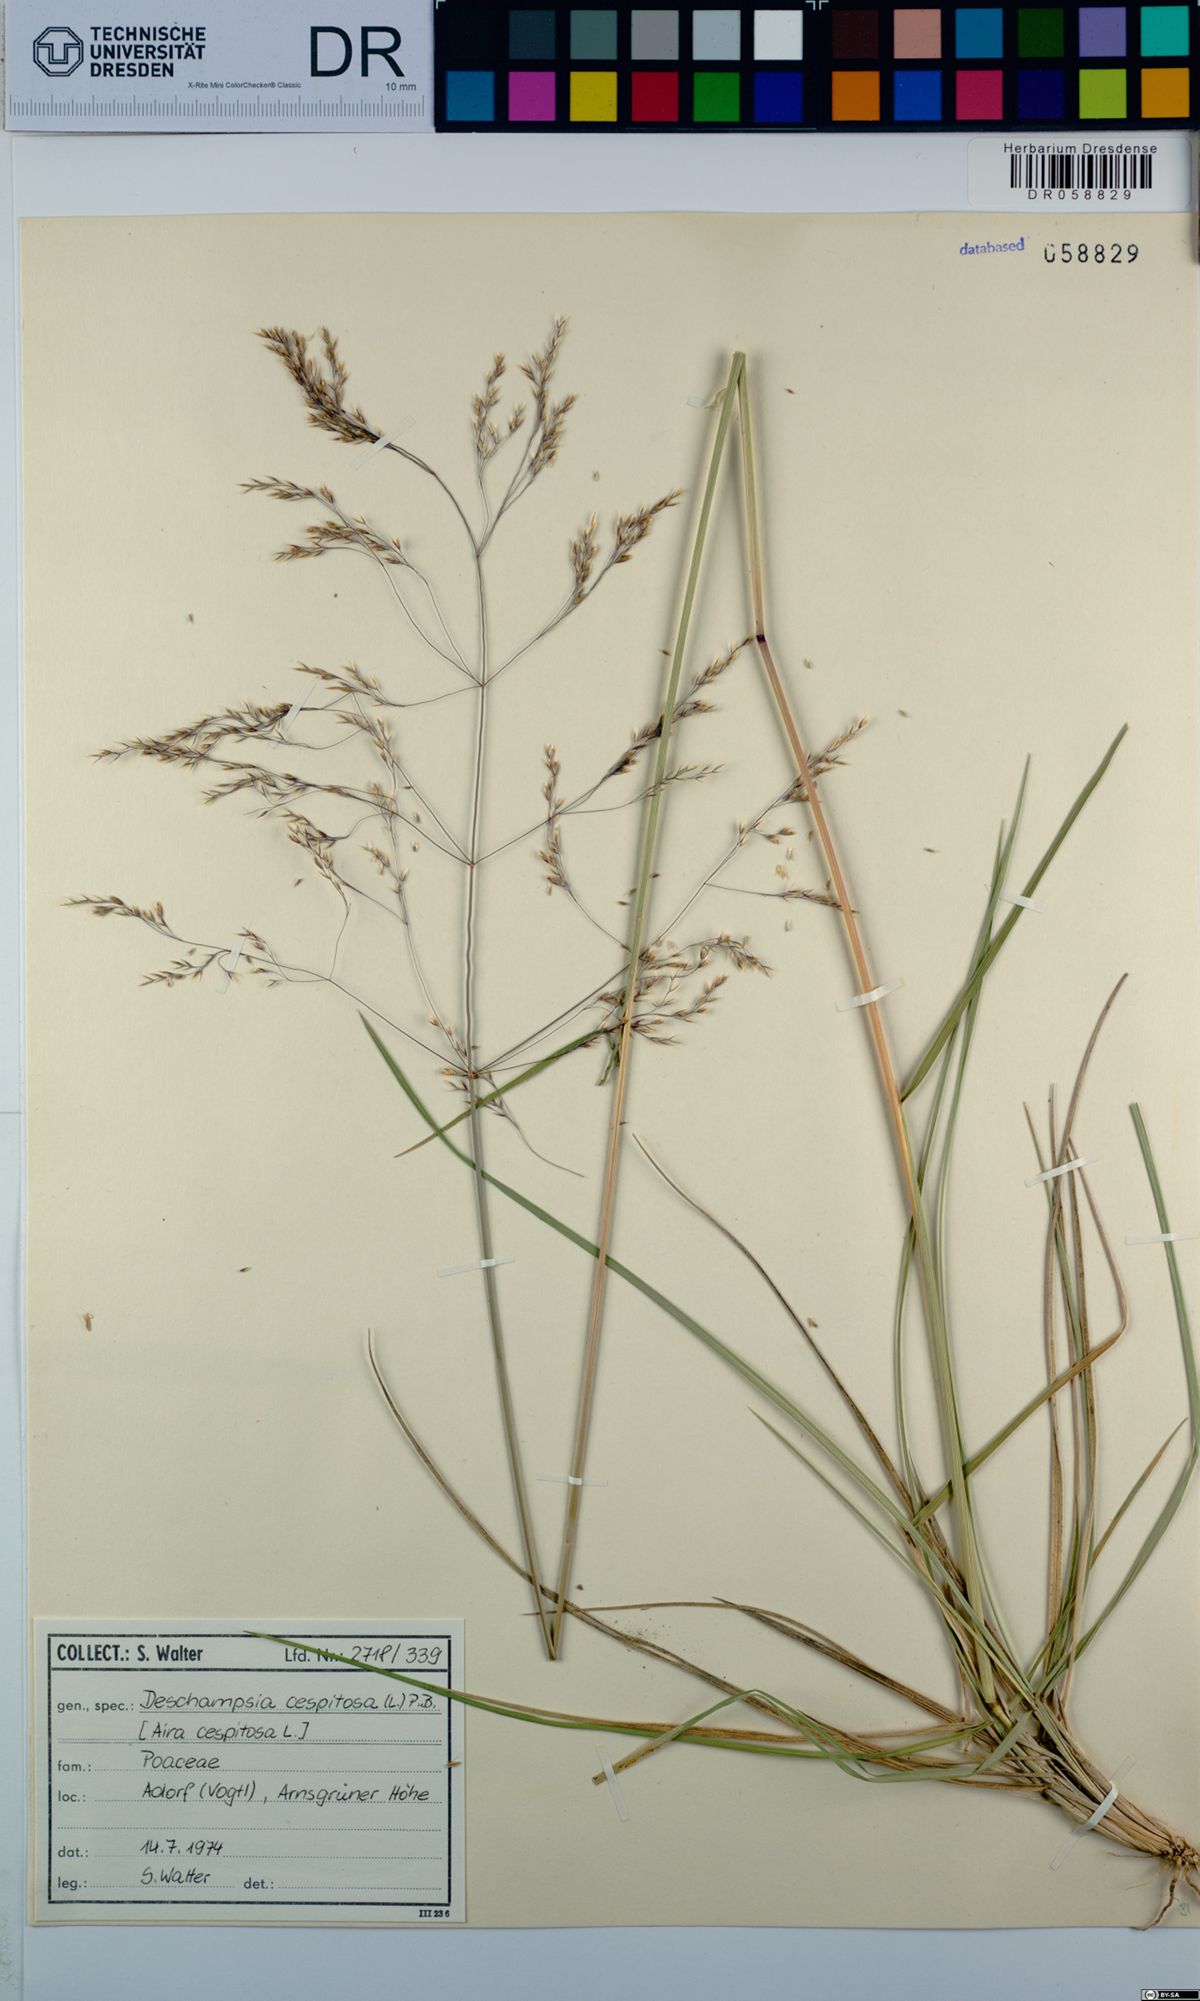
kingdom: Plantae
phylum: Tracheophyta
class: Liliopsida
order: Poales
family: Poaceae
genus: Deschampsia
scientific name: Deschampsia cespitosa
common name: Tufted hair-grass
